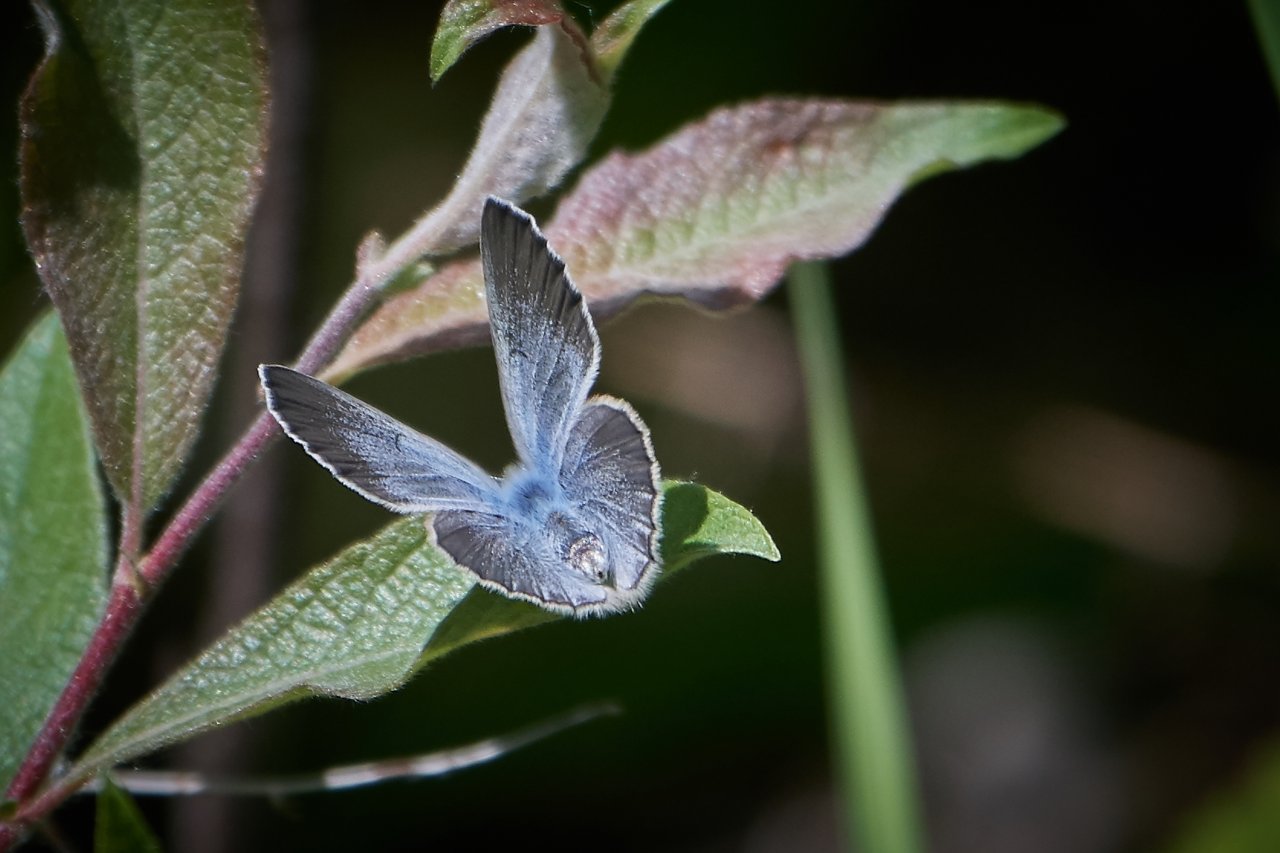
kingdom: Animalia
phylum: Arthropoda
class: Insecta
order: Lepidoptera
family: Lycaenidae
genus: Glaucopsyche
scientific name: Glaucopsyche lygdamus
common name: Silvery Blue
